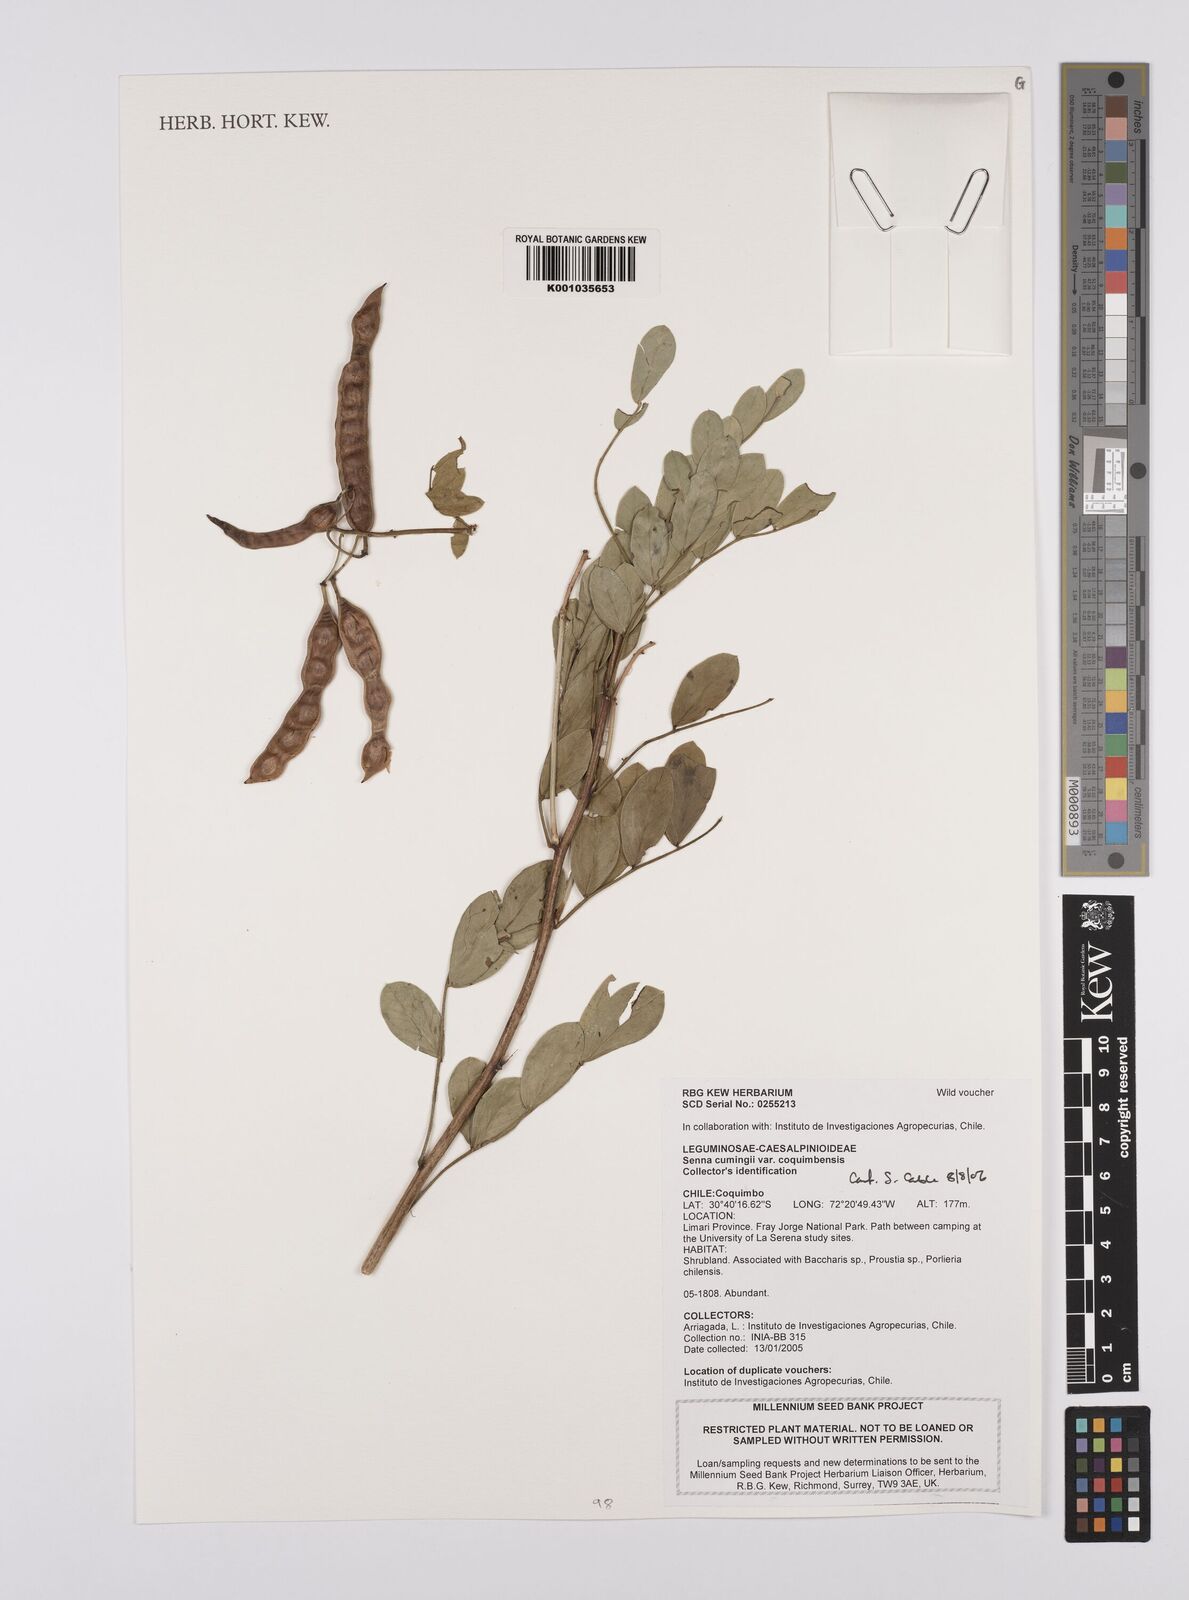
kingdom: Plantae
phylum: Tracheophyta
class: Magnoliopsida
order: Fabales
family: Fabaceae
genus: Senna
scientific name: Senna cumingii
